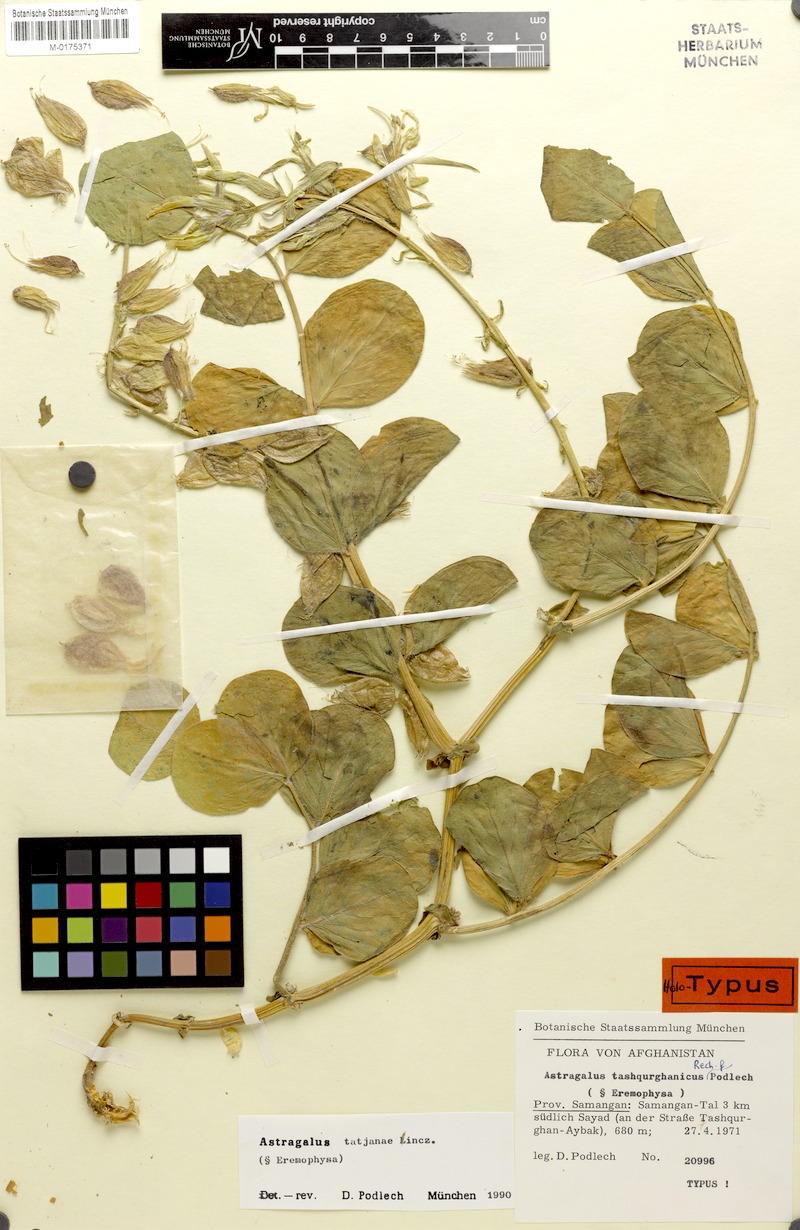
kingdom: Plantae
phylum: Tracheophyta
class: Magnoliopsida
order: Fabales
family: Fabaceae
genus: Astragalus
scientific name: Astragalus tatjanae
